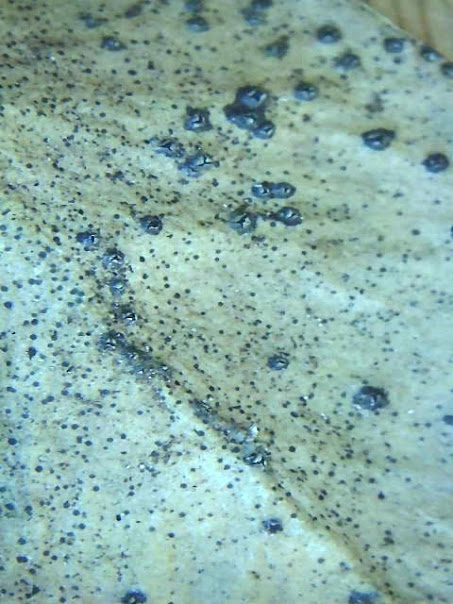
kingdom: Fungi
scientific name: Fungi
